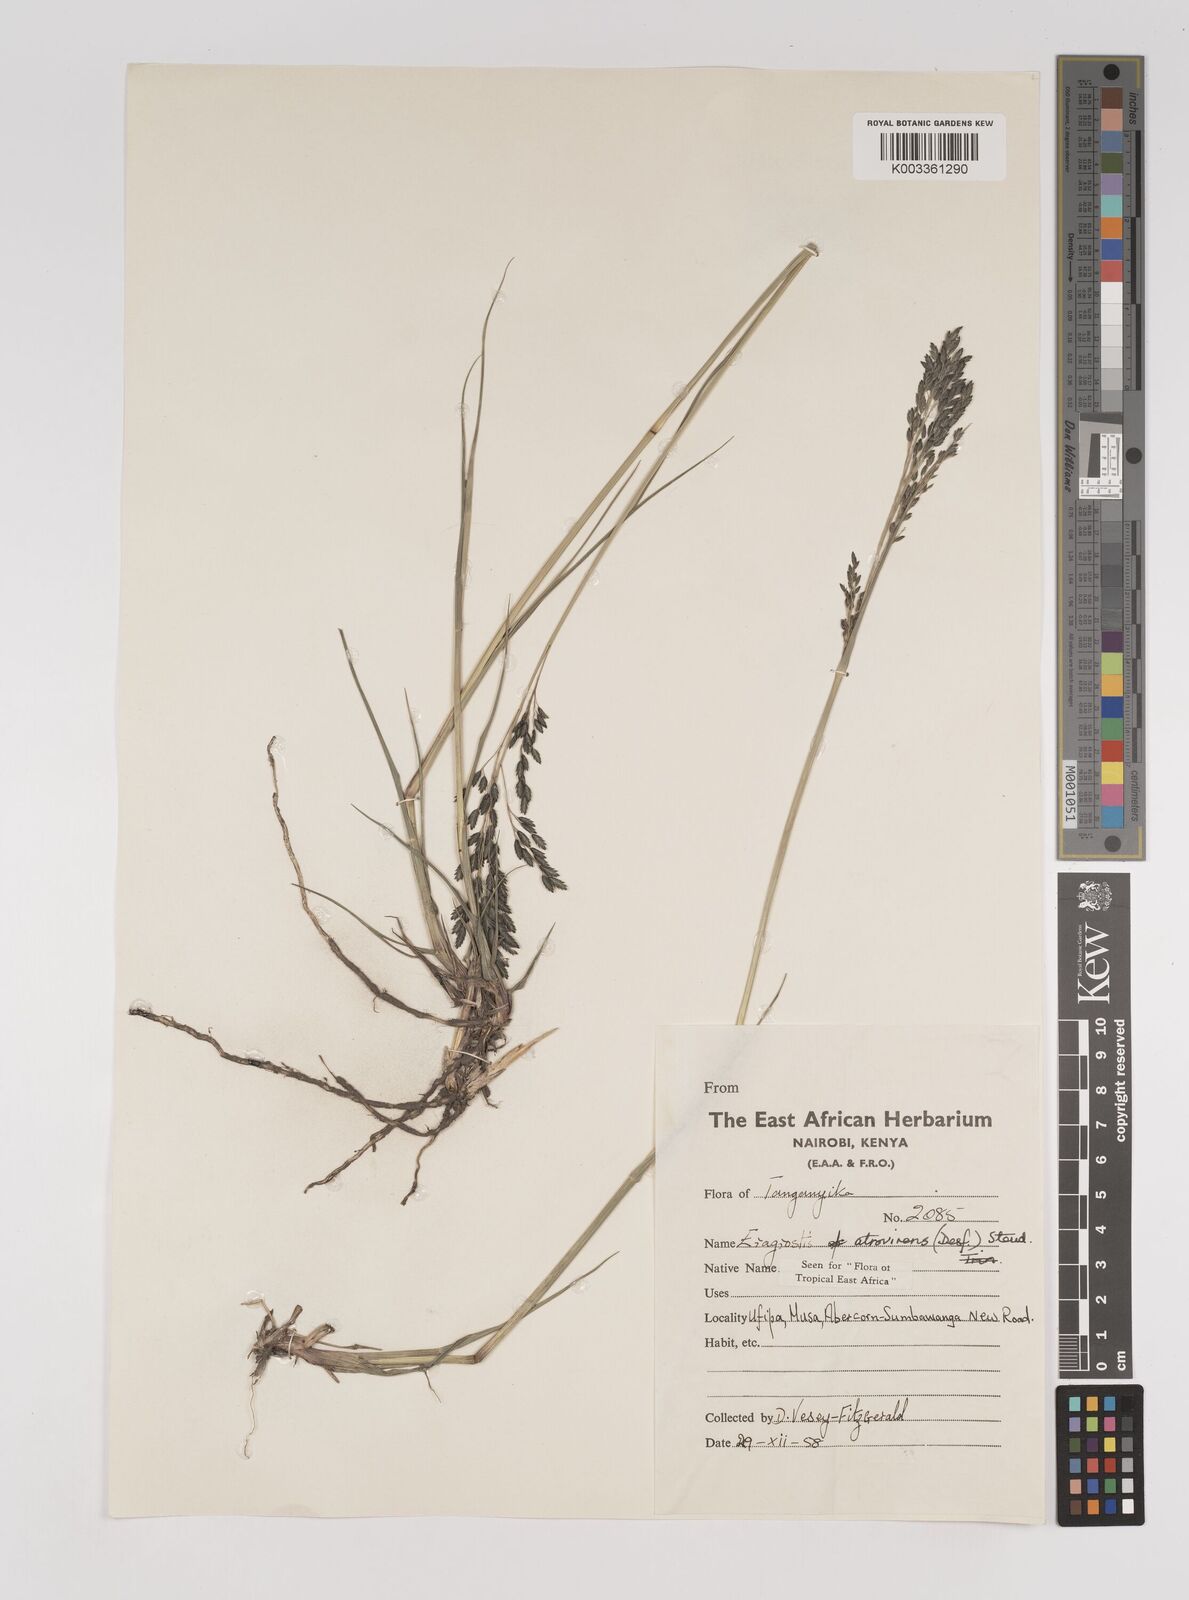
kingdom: Plantae
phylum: Tracheophyta
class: Liliopsida
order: Poales
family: Poaceae
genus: Eragrostis
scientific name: Eragrostis papposa
